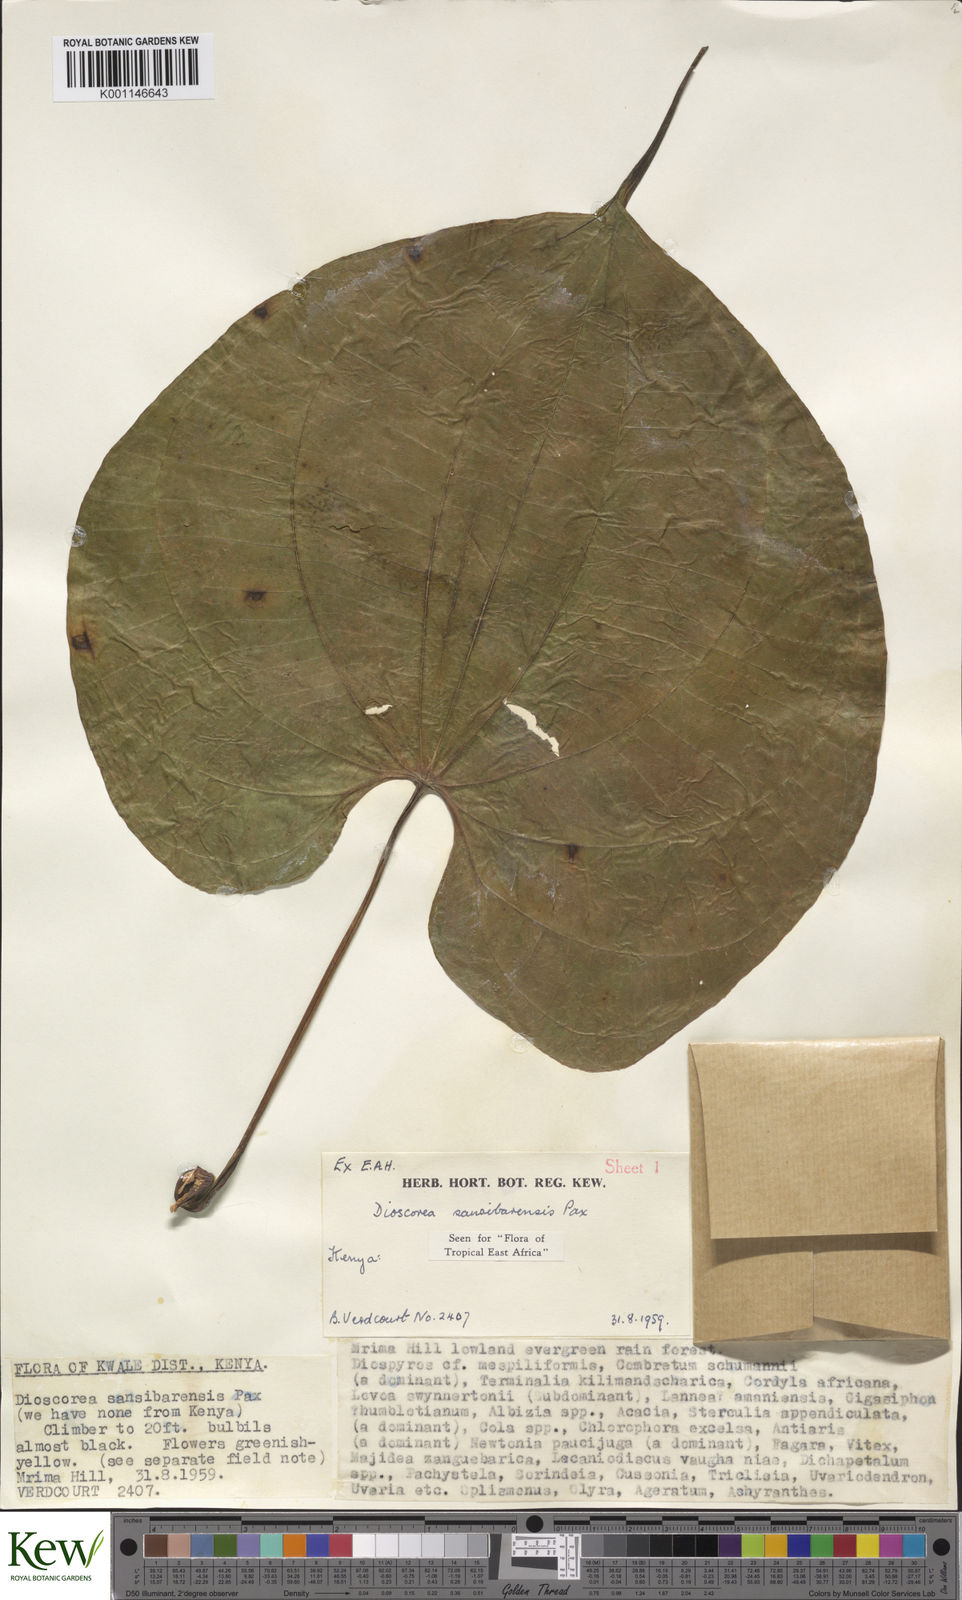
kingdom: Plantae
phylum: Tracheophyta
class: Liliopsida
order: Dioscoreales
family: Dioscoreaceae
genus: Dioscorea
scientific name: Dioscorea sansibarensis
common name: Zanzibar yam
